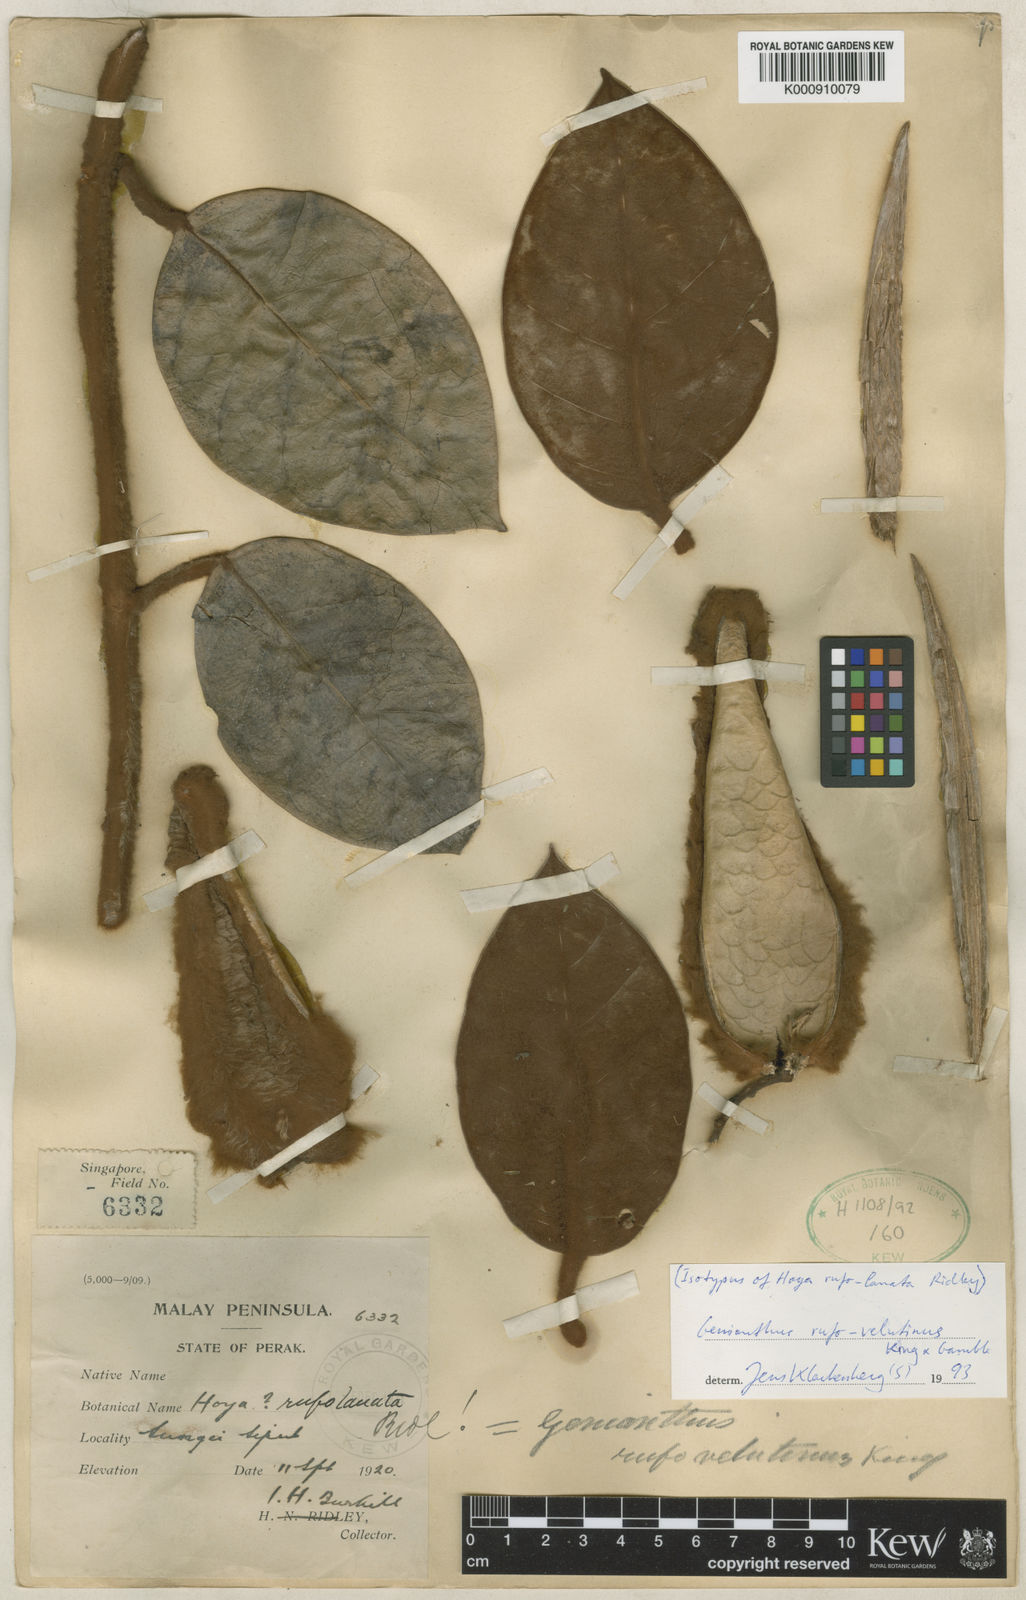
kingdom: Plantae
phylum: Tracheophyta
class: Magnoliopsida
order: Gentianales
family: Apocynaceae
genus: Secamone
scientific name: Secamone
